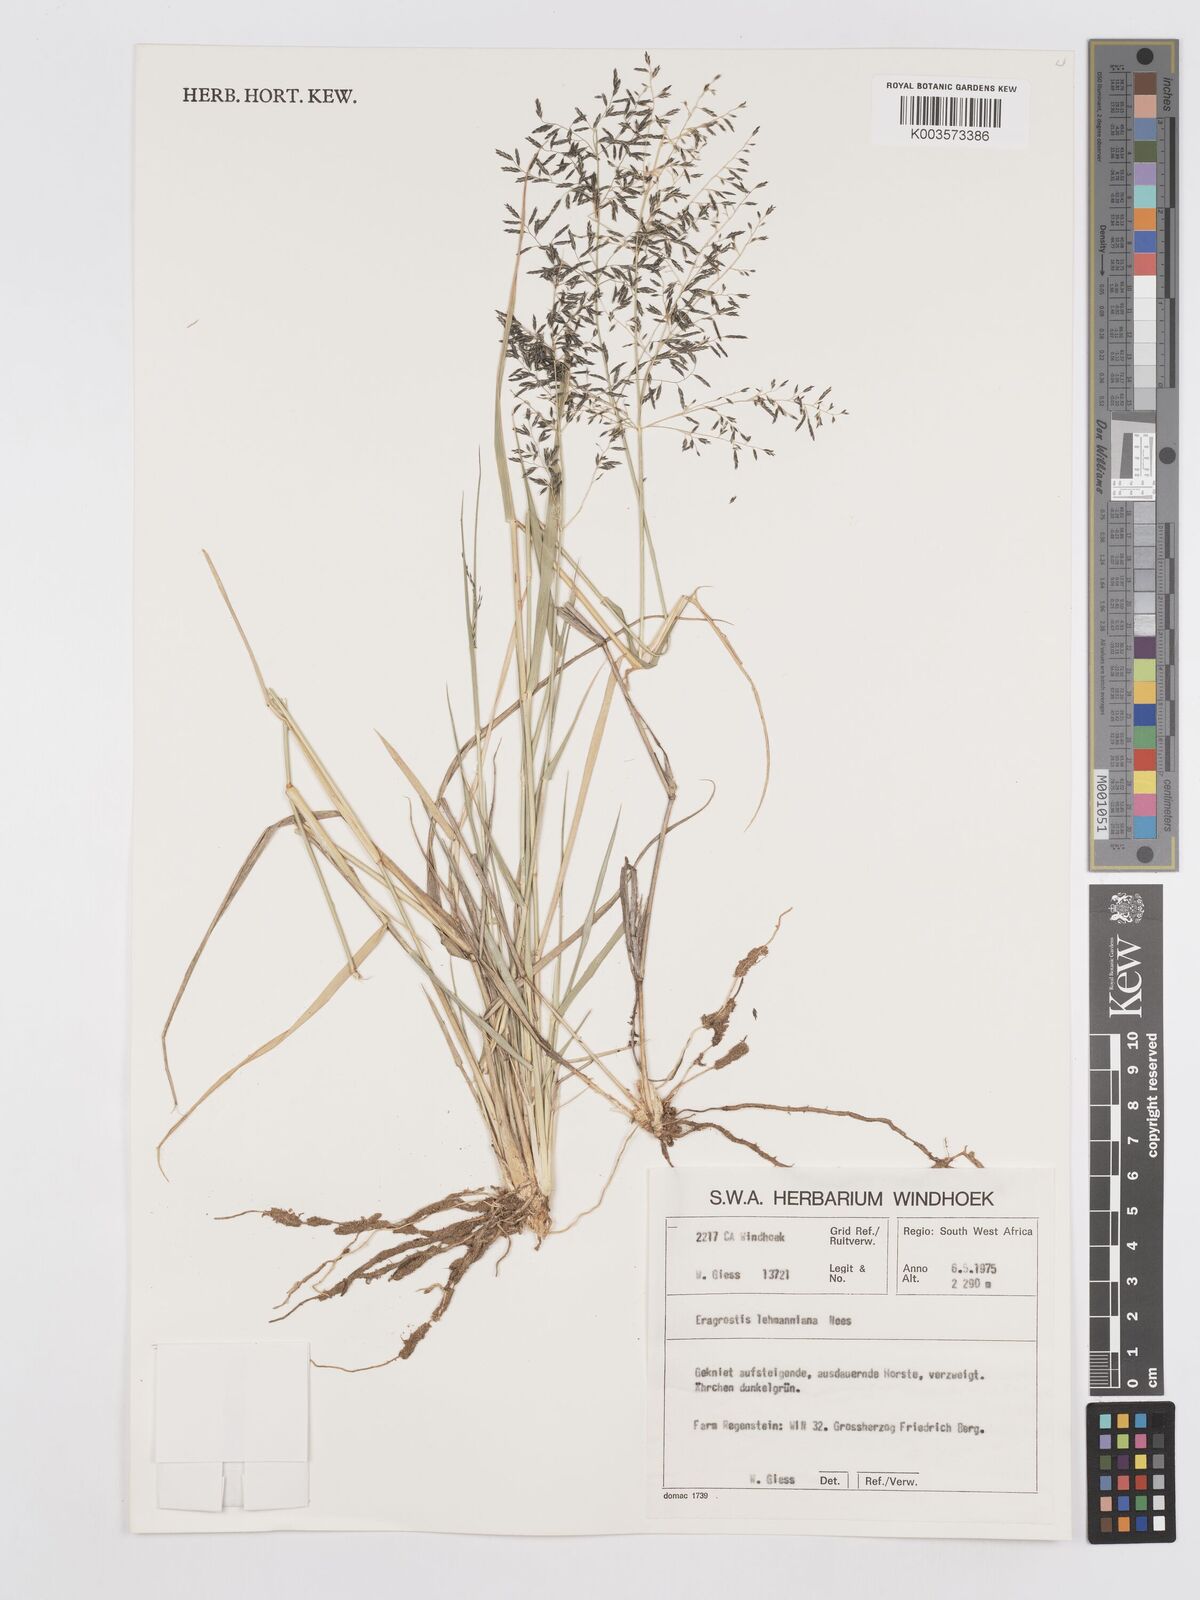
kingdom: Plantae
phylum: Tracheophyta
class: Liliopsida
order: Poales
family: Poaceae
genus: Eragrostis
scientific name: Eragrostis lehmanniana
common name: Lehmann lovegrass
